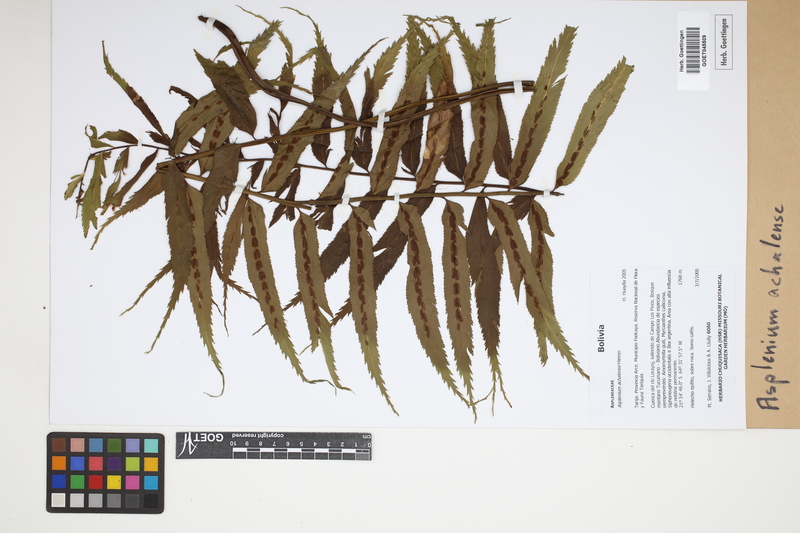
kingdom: Plantae
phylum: Tracheophyta
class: Polypodiopsida
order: Polypodiales
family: Aspleniaceae
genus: Asplenium
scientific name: Asplenium achalense
